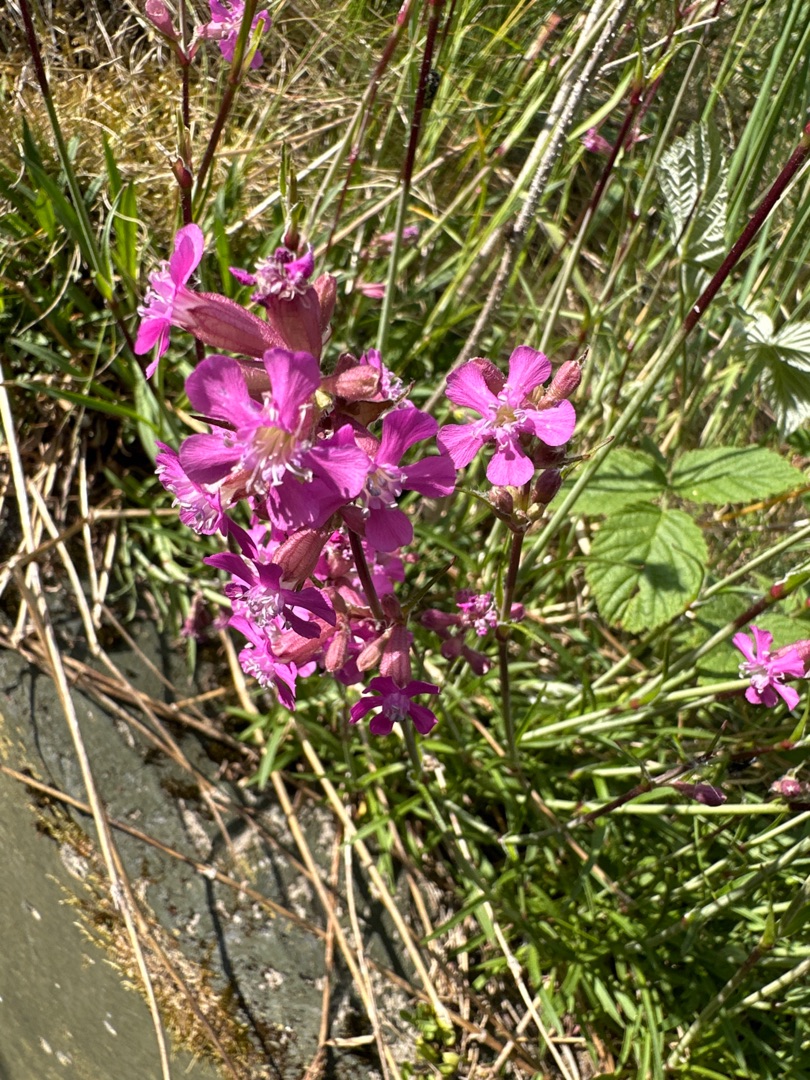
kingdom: Plantae
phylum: Tracheophyta
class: Magnoliopsida
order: Caryophyllales
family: Caryophyllaceae
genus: Viscaria
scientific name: Viscaria vulgaris
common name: Tjærenellike
